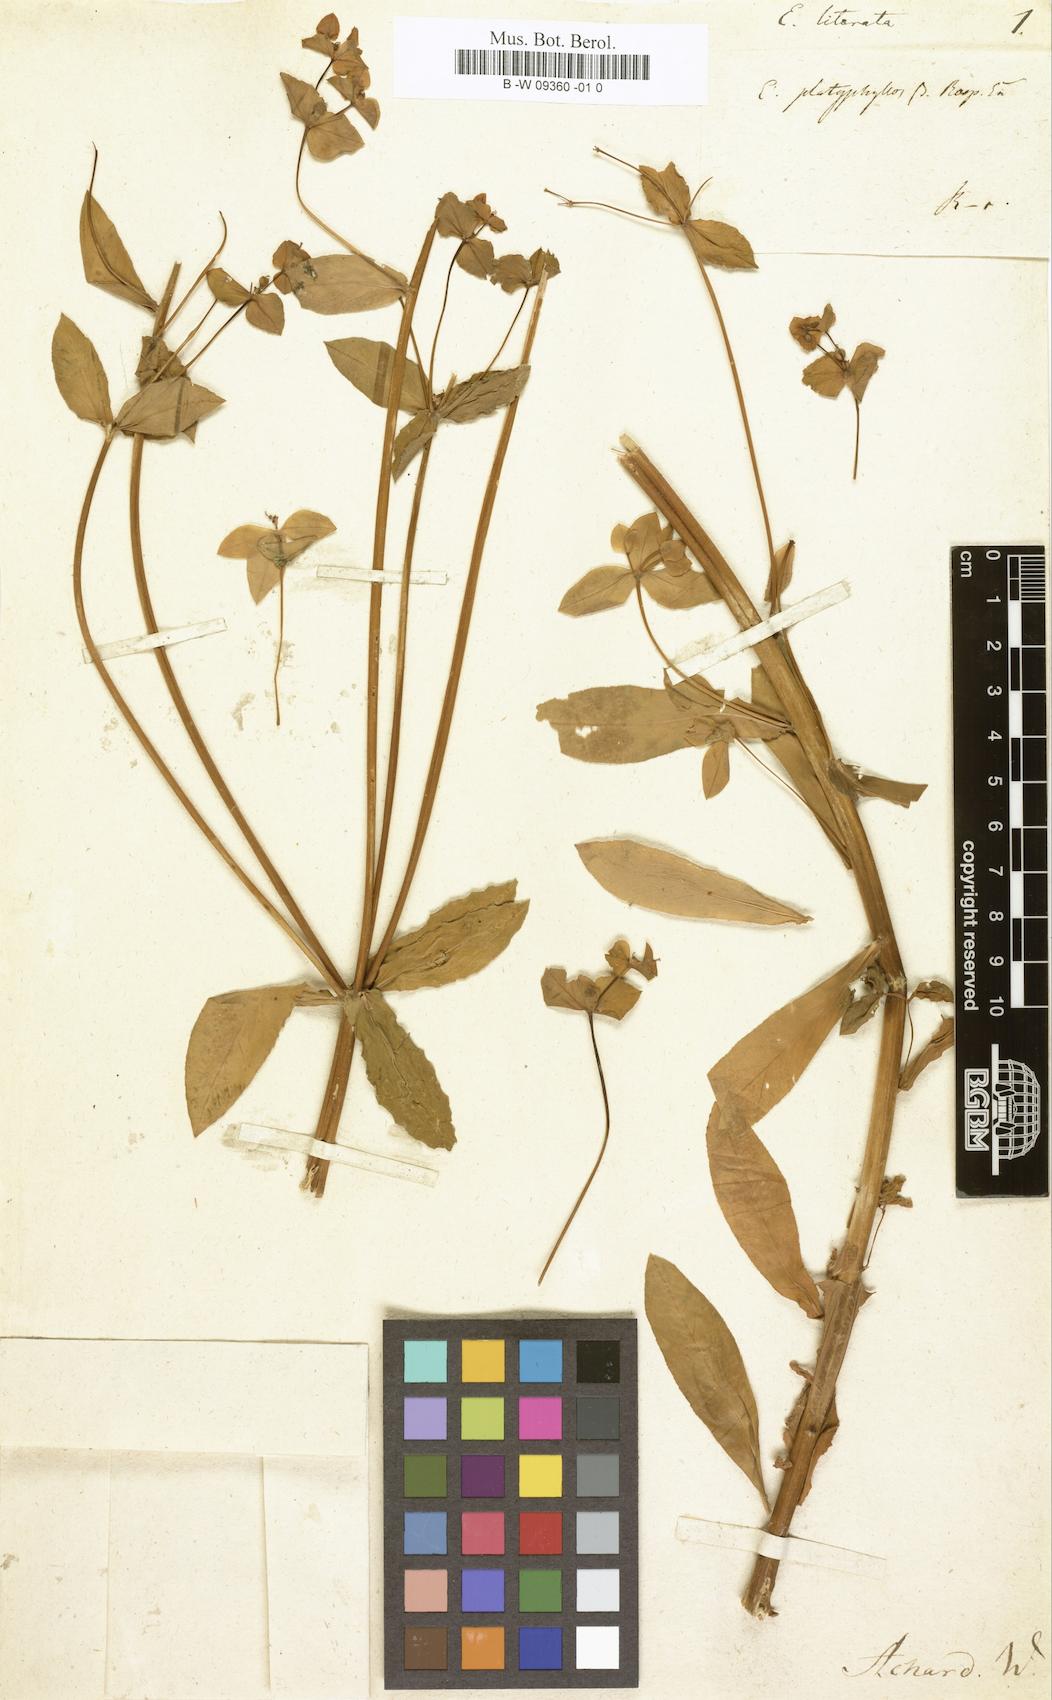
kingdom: Plantae
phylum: Tracheophyta
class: Magnoliopsida
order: Malpighiales
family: Euphorbiaceae
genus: Euphorbia
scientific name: Euphorbia platyphyllos
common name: Broad-leaved spurge
